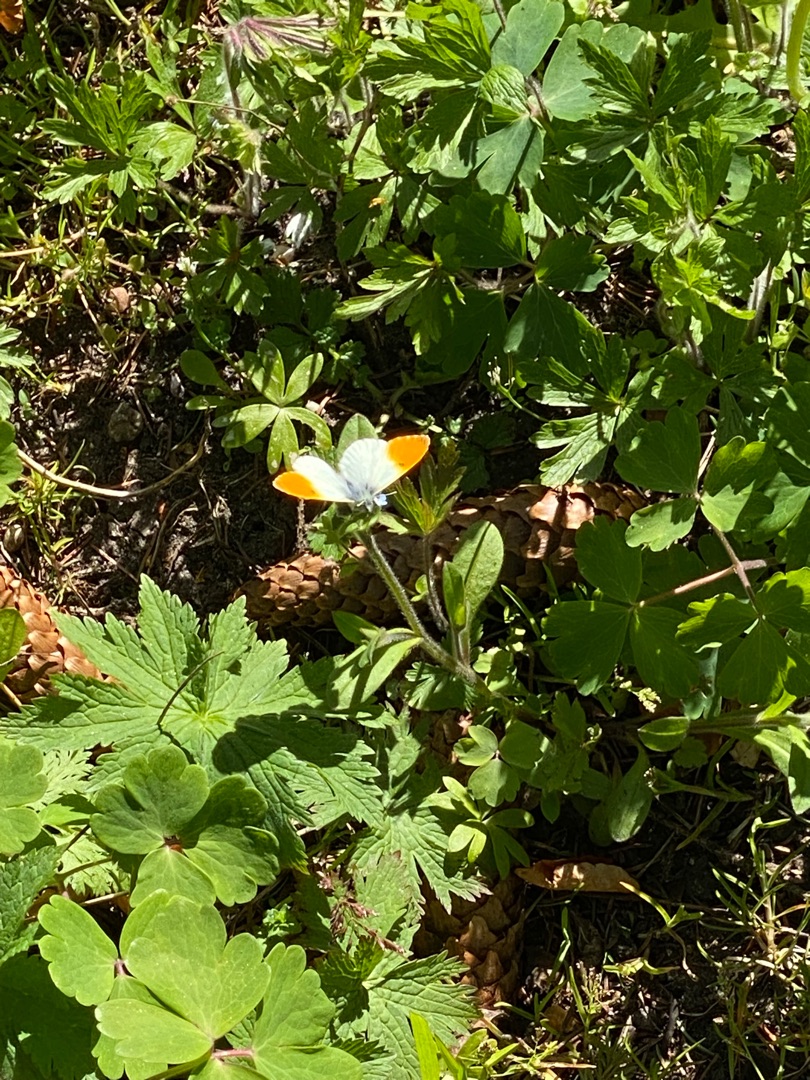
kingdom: Animalia
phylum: Arthropoda
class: Insecta
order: Lepidoptera
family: Pieridae
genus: Anthocharis
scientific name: Anthocharis cardamines
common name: Aurora
